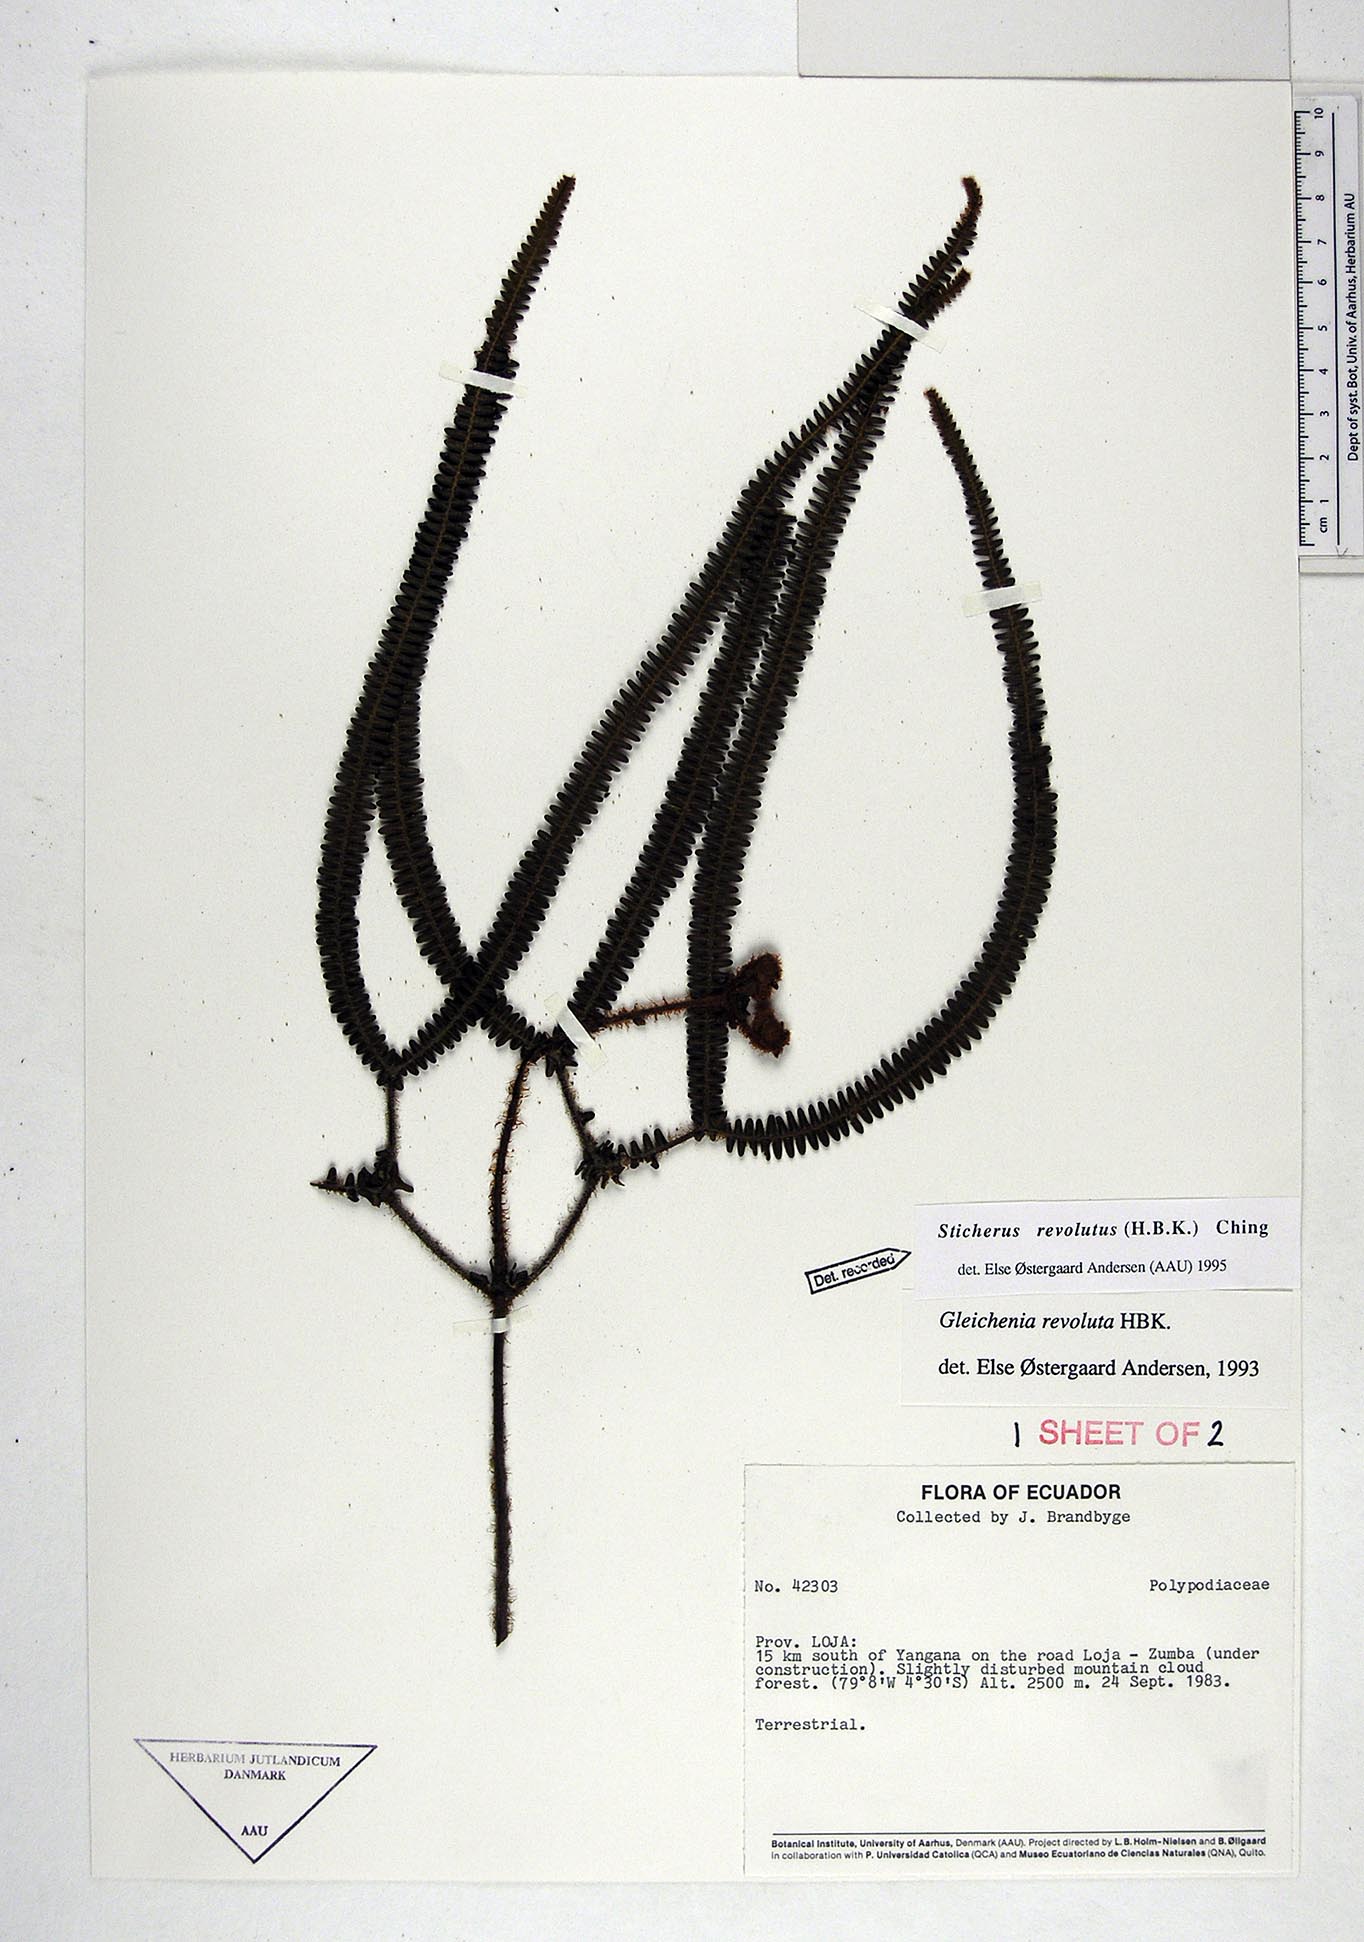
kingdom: Plantae
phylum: Tracheophyta
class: Polypodiopsida
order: Gleicheniales
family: Gleicheniaceae
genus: Sticherus
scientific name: Sticherus revolutus
